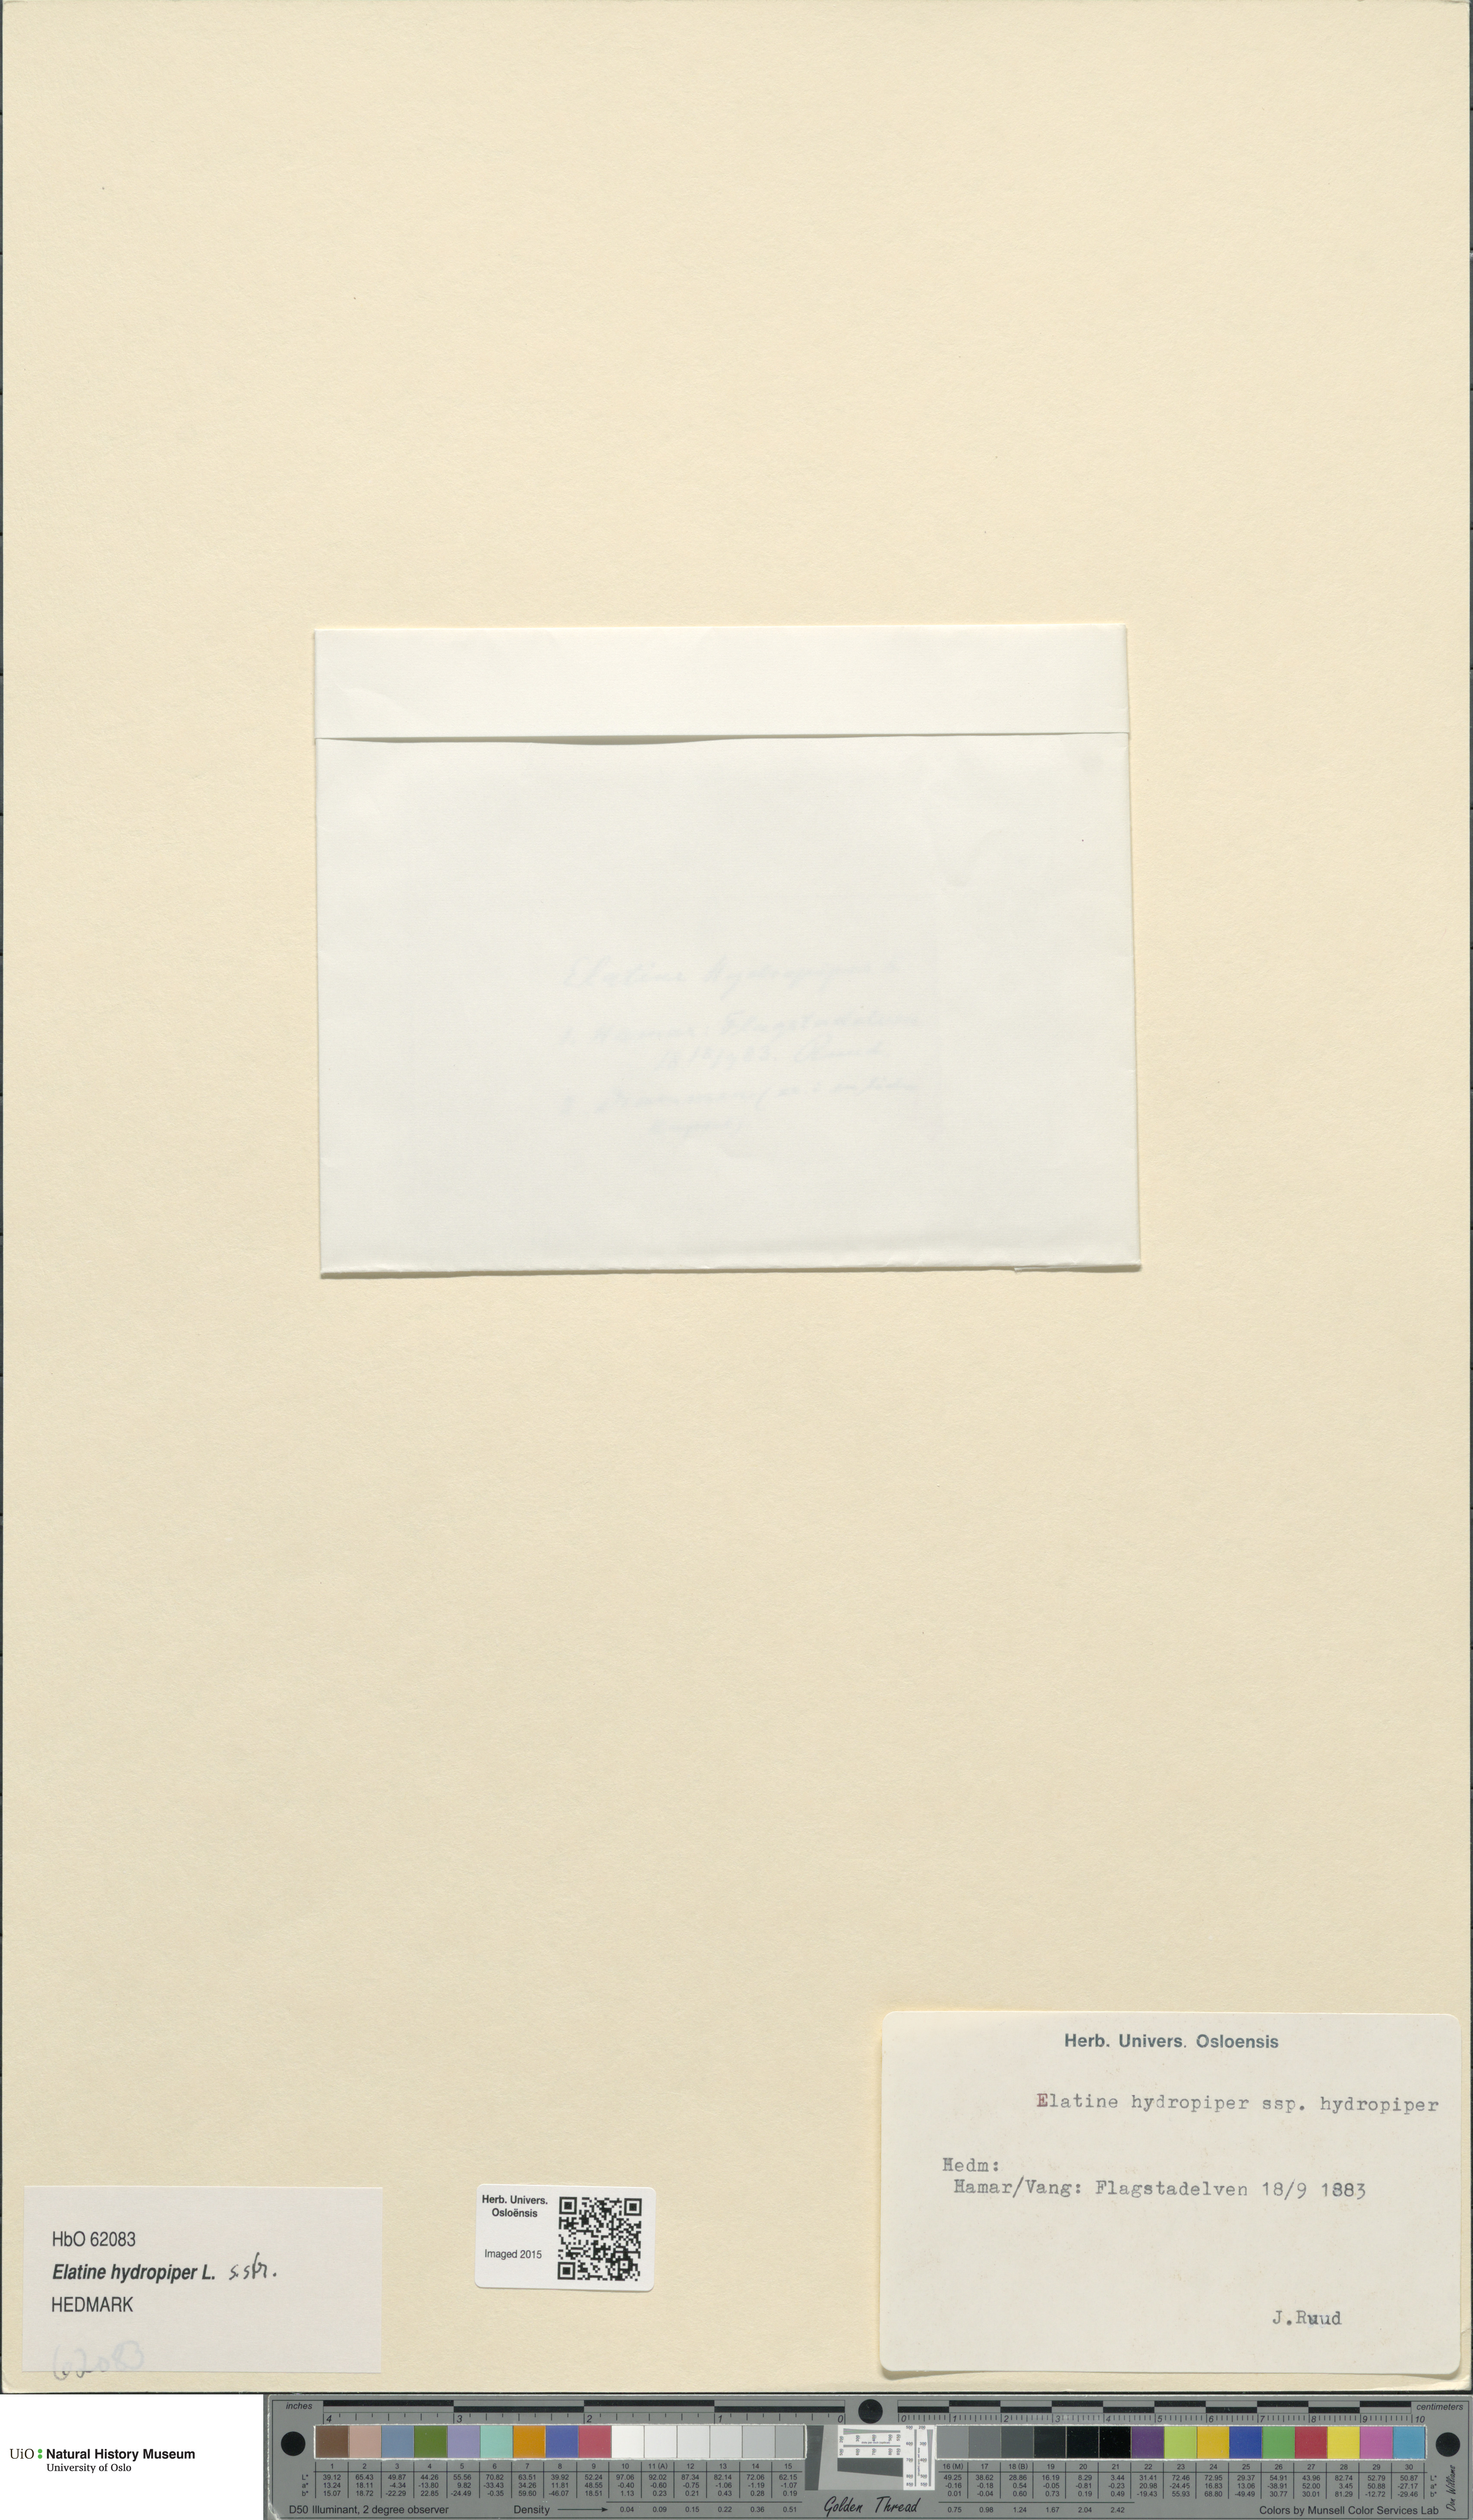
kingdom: Plantae
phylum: Tracheophyta
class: Magnoliopsida
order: Malpighiales
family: Elatinaceae
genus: Elatine
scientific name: Elatine hydropiper
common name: Eight-stamened waterwort
